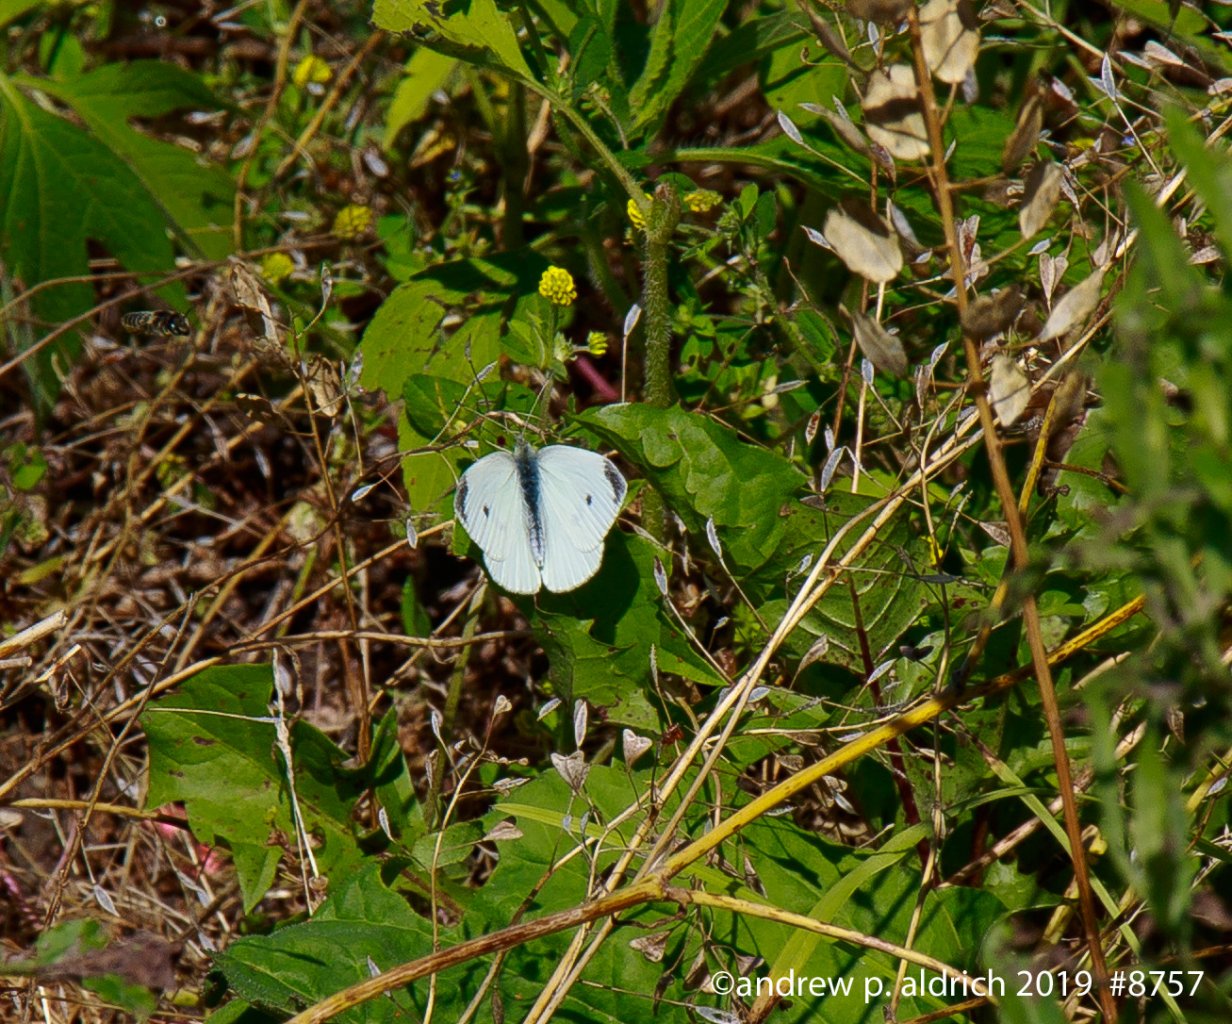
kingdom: Animalia
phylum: Arthropoda
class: Insecta
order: Lepidoptera
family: Pieridae
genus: Pieris
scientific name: Pieris rapae
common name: Cabbage White
